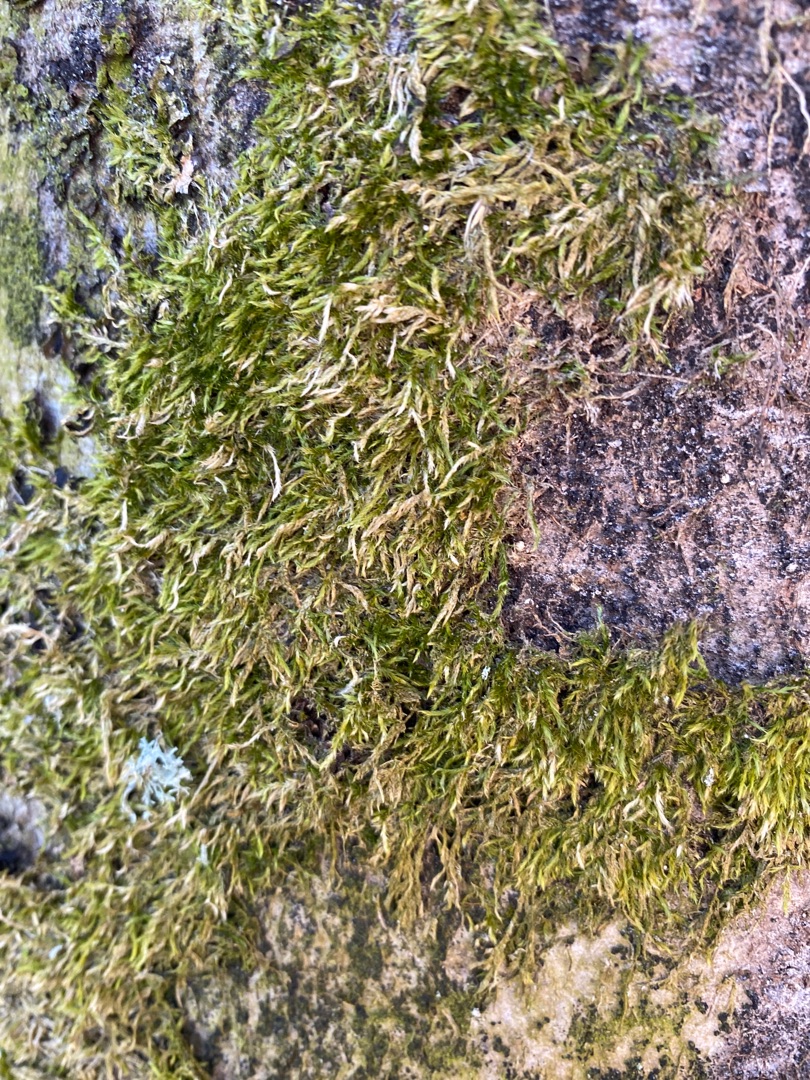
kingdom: Plantae
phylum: Bryophyta
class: Bryopsida
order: Hypnales
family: Hypnaceae
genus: Hypnum
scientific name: Hypnum
